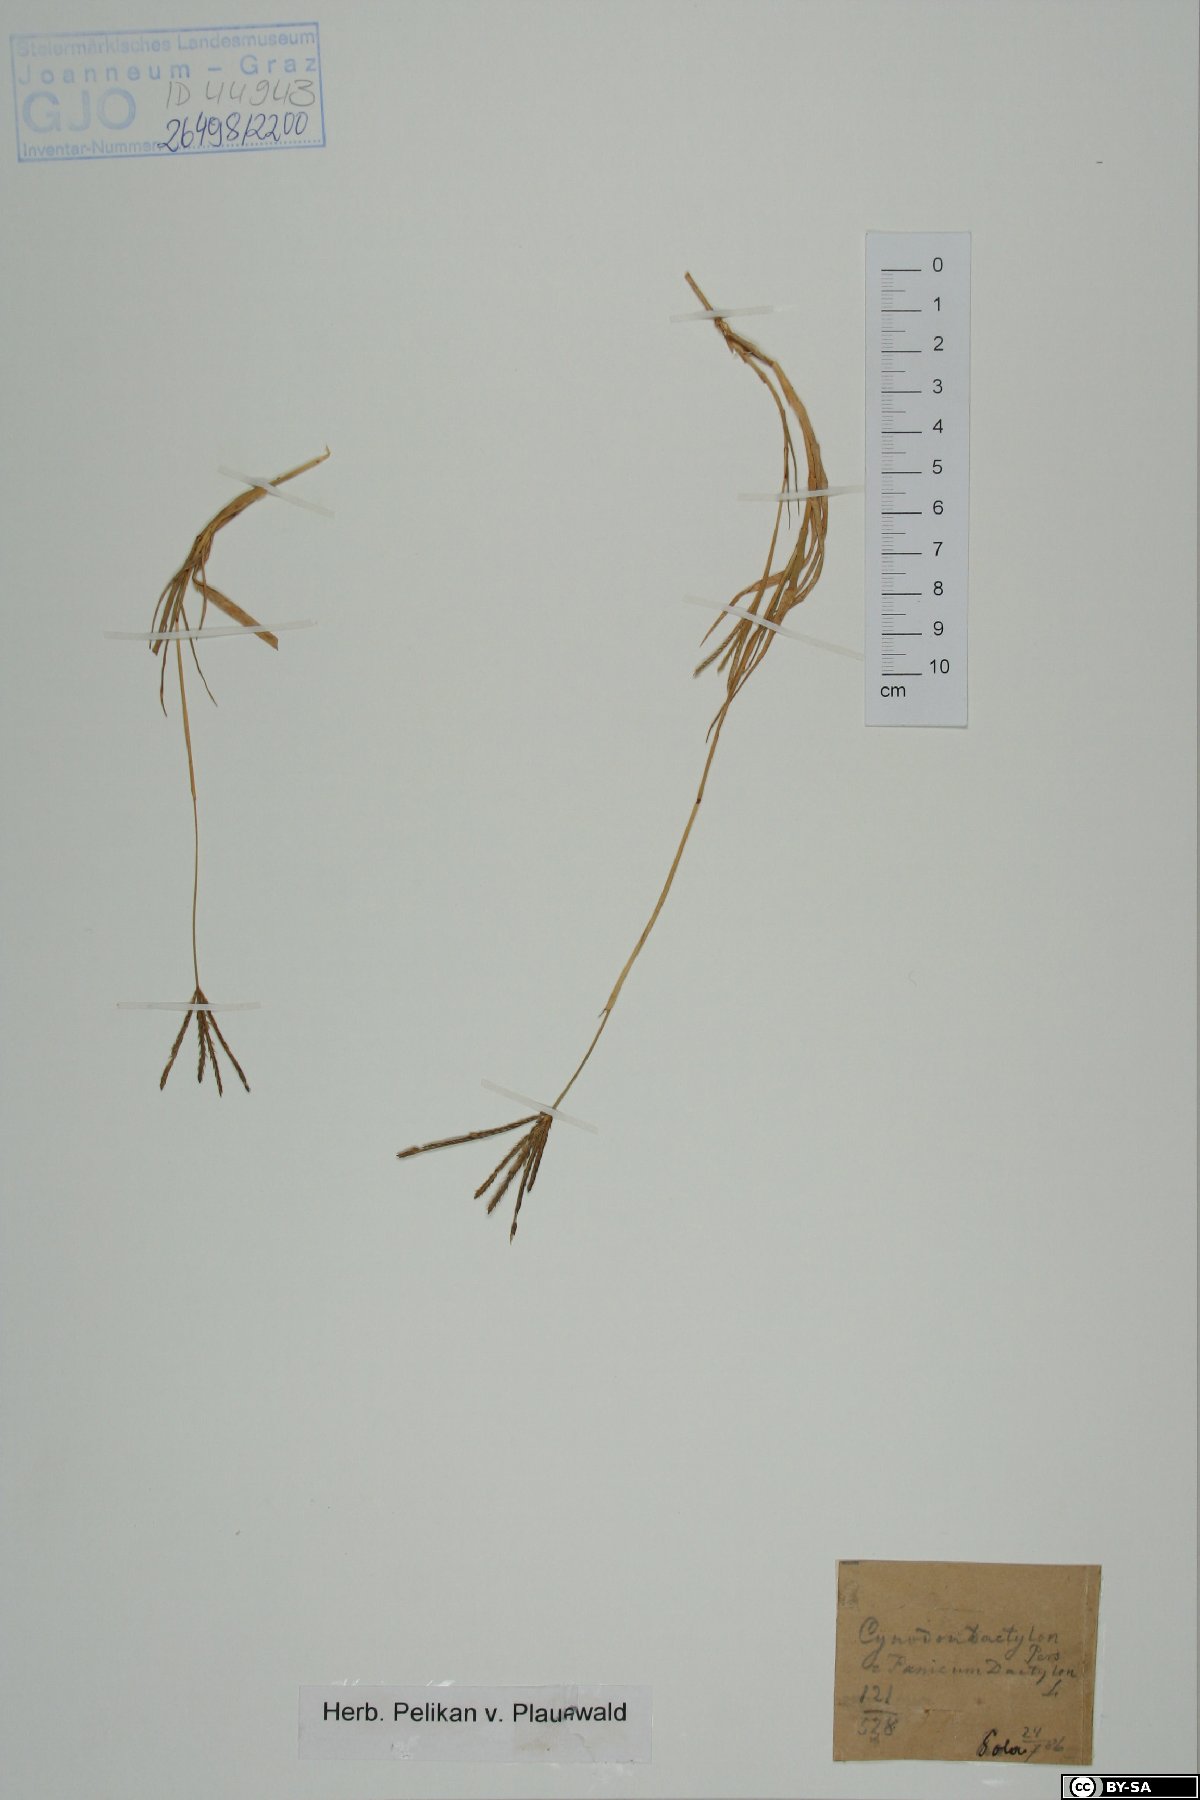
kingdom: Plantae
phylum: Tracheophyta
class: Liliopsida
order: Poales
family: Poaceae
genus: Cynodon
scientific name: Cynodon dactylon
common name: Bermuda grass
